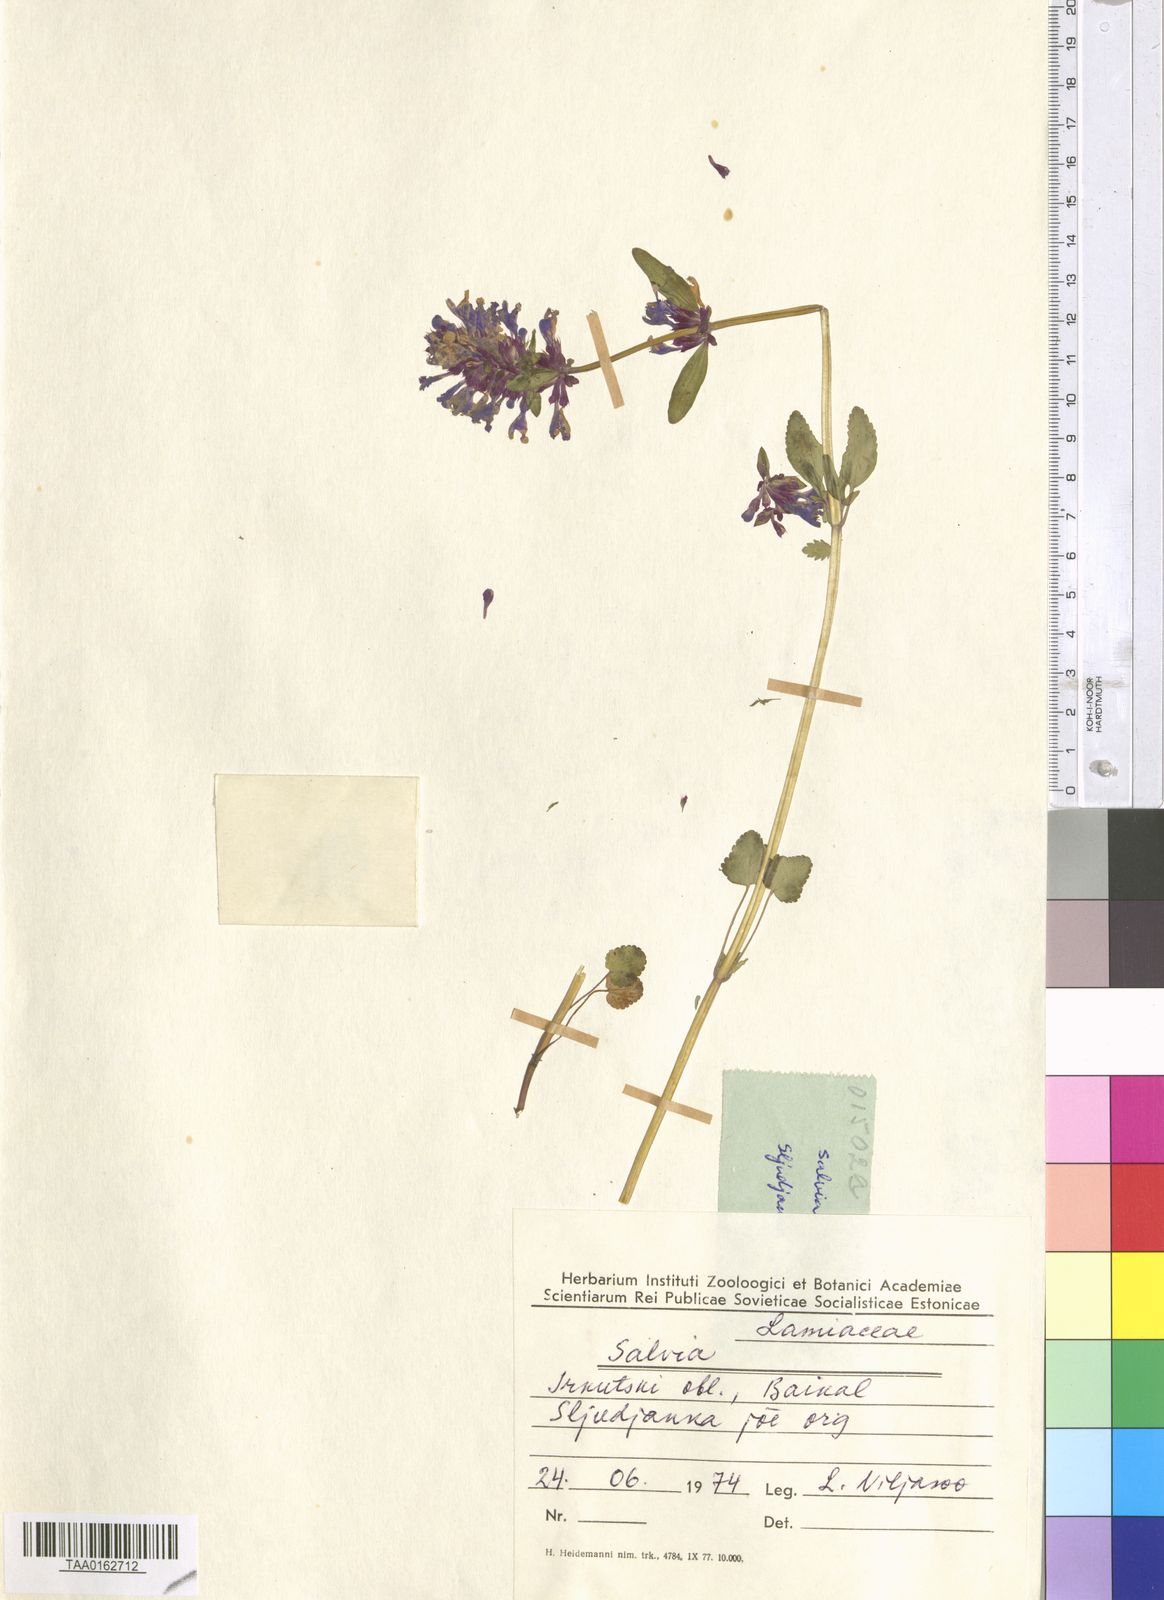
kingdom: Plantae
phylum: Tracheophyta
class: Magnoliopsida
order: Lamiales
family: Lamiaceae
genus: Salvia
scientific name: Salvia
